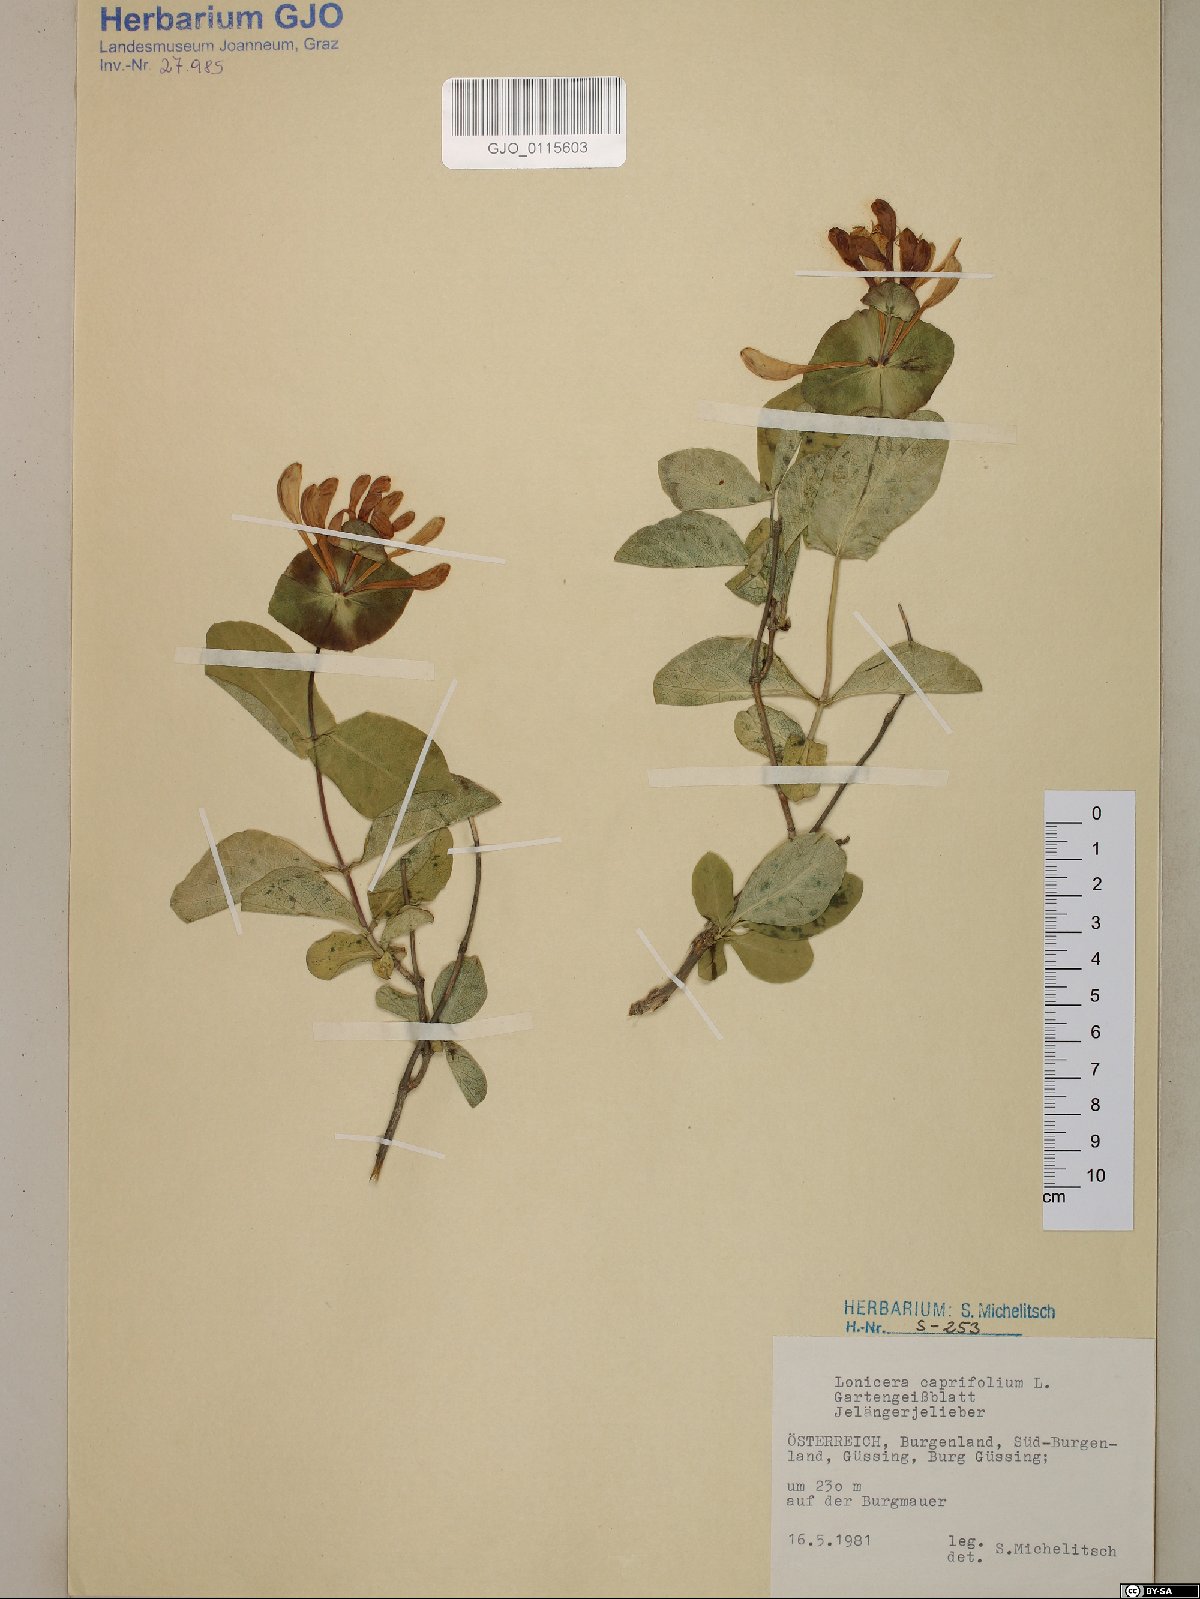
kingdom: Plantae
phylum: Tracheophyta
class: Magnoliopsida
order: Dipsacales
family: Caprifoliaceae
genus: Lonicera
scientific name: Lonicera caprifolium
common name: Perfoliate honeysuckle
